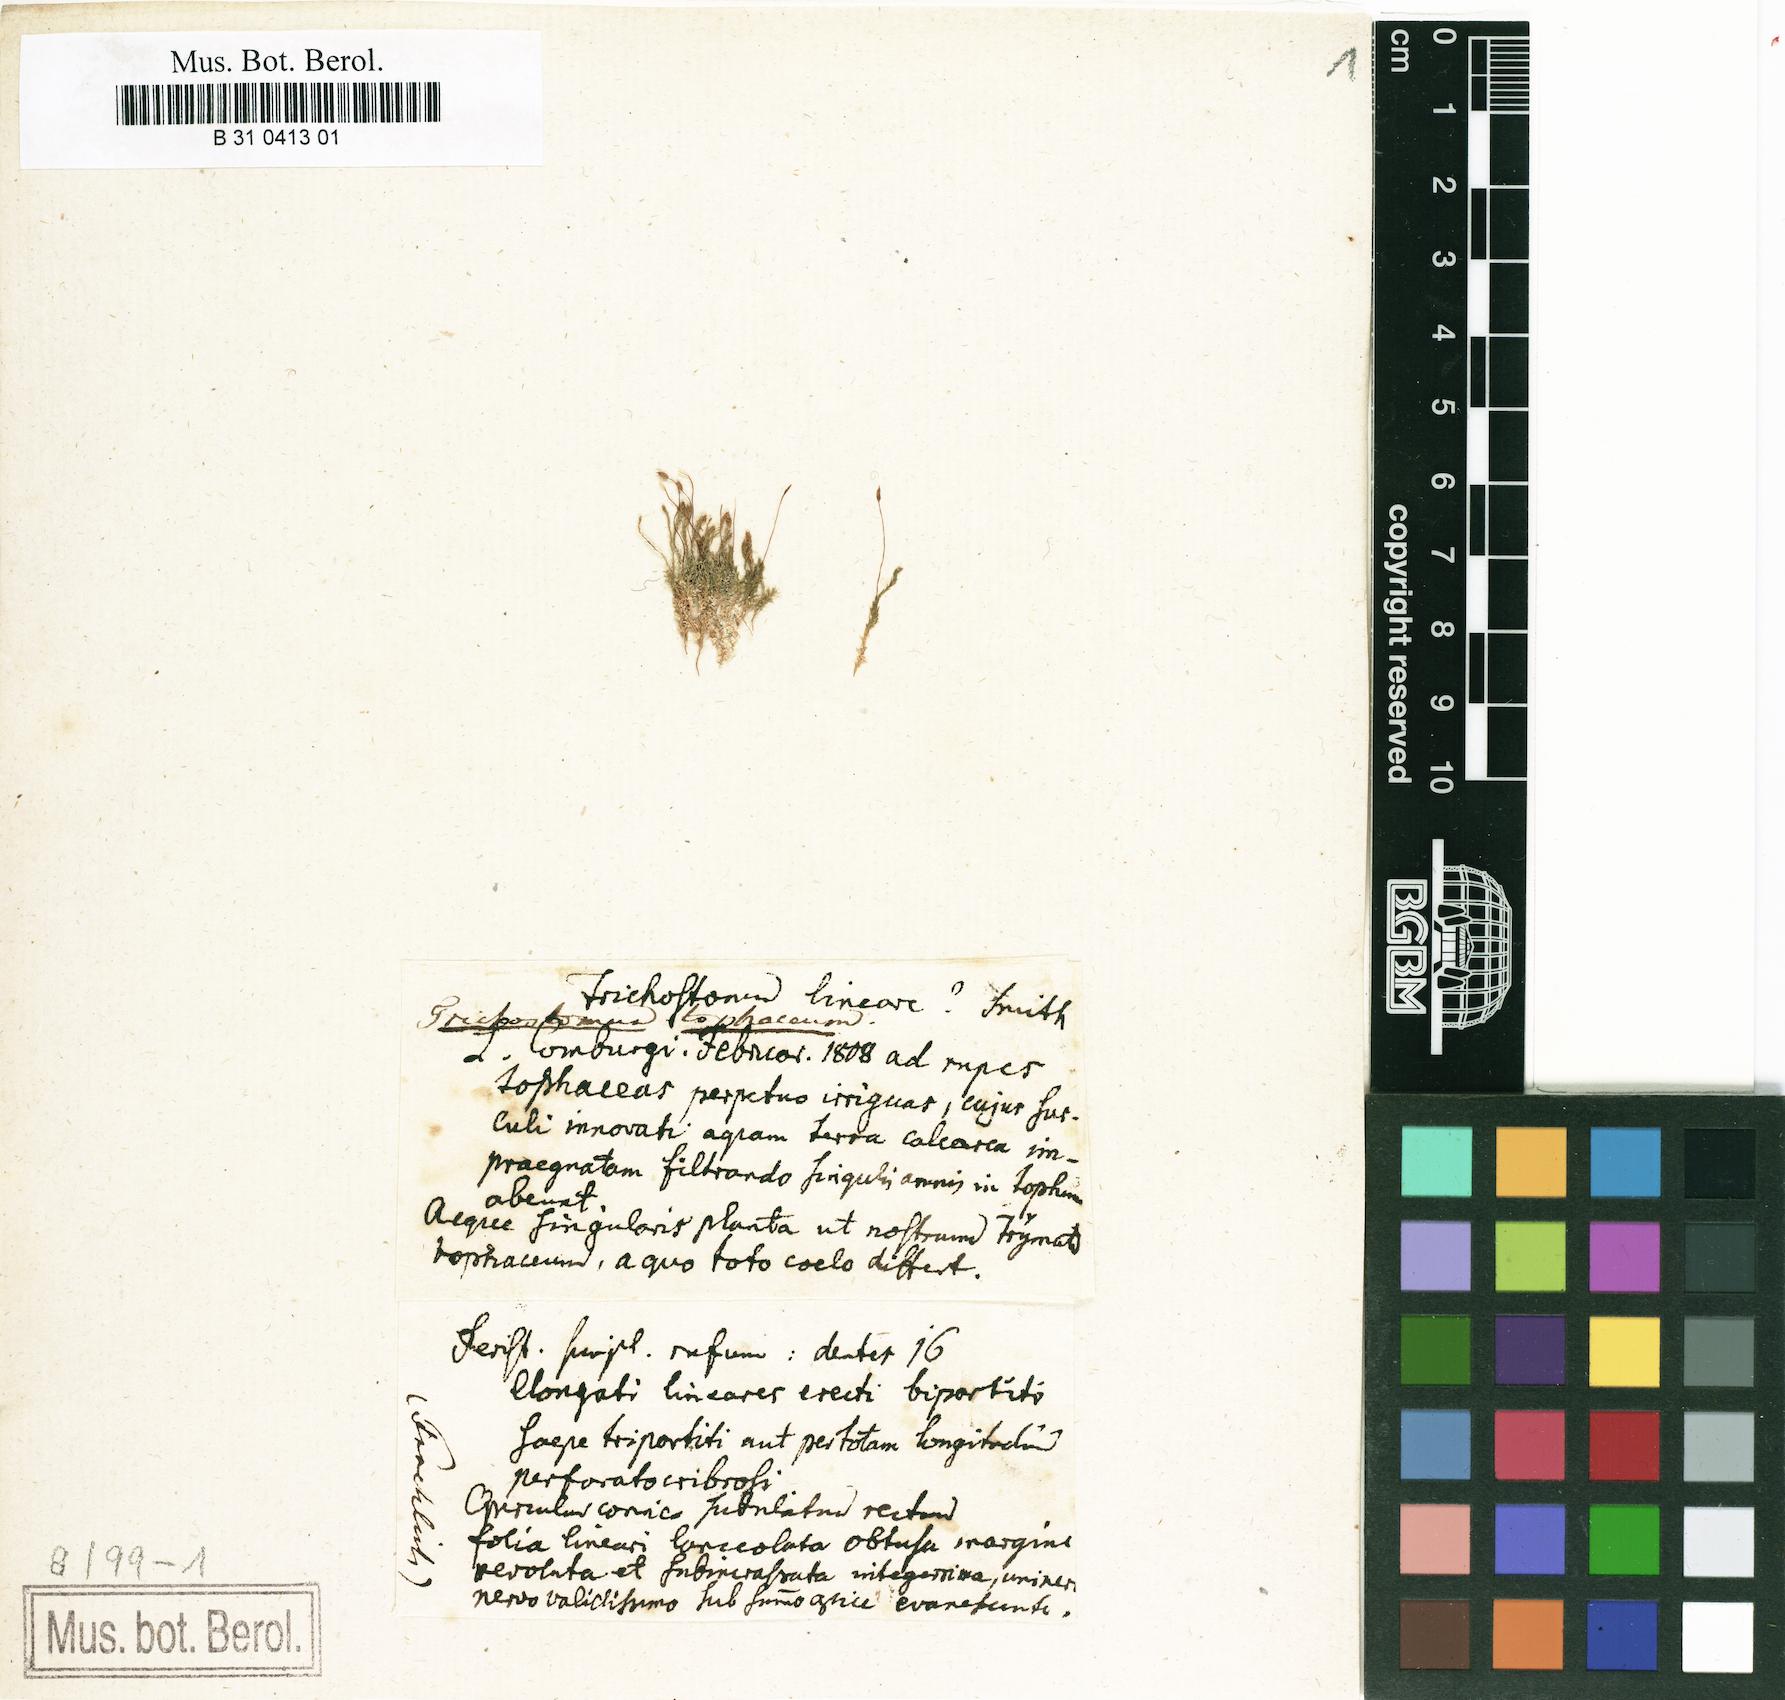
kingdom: Plantae
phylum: Bryophyta
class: Bryopsida
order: Pottiales
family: Pottiaceae
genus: Geheebia
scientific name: Geheebia tophacea
